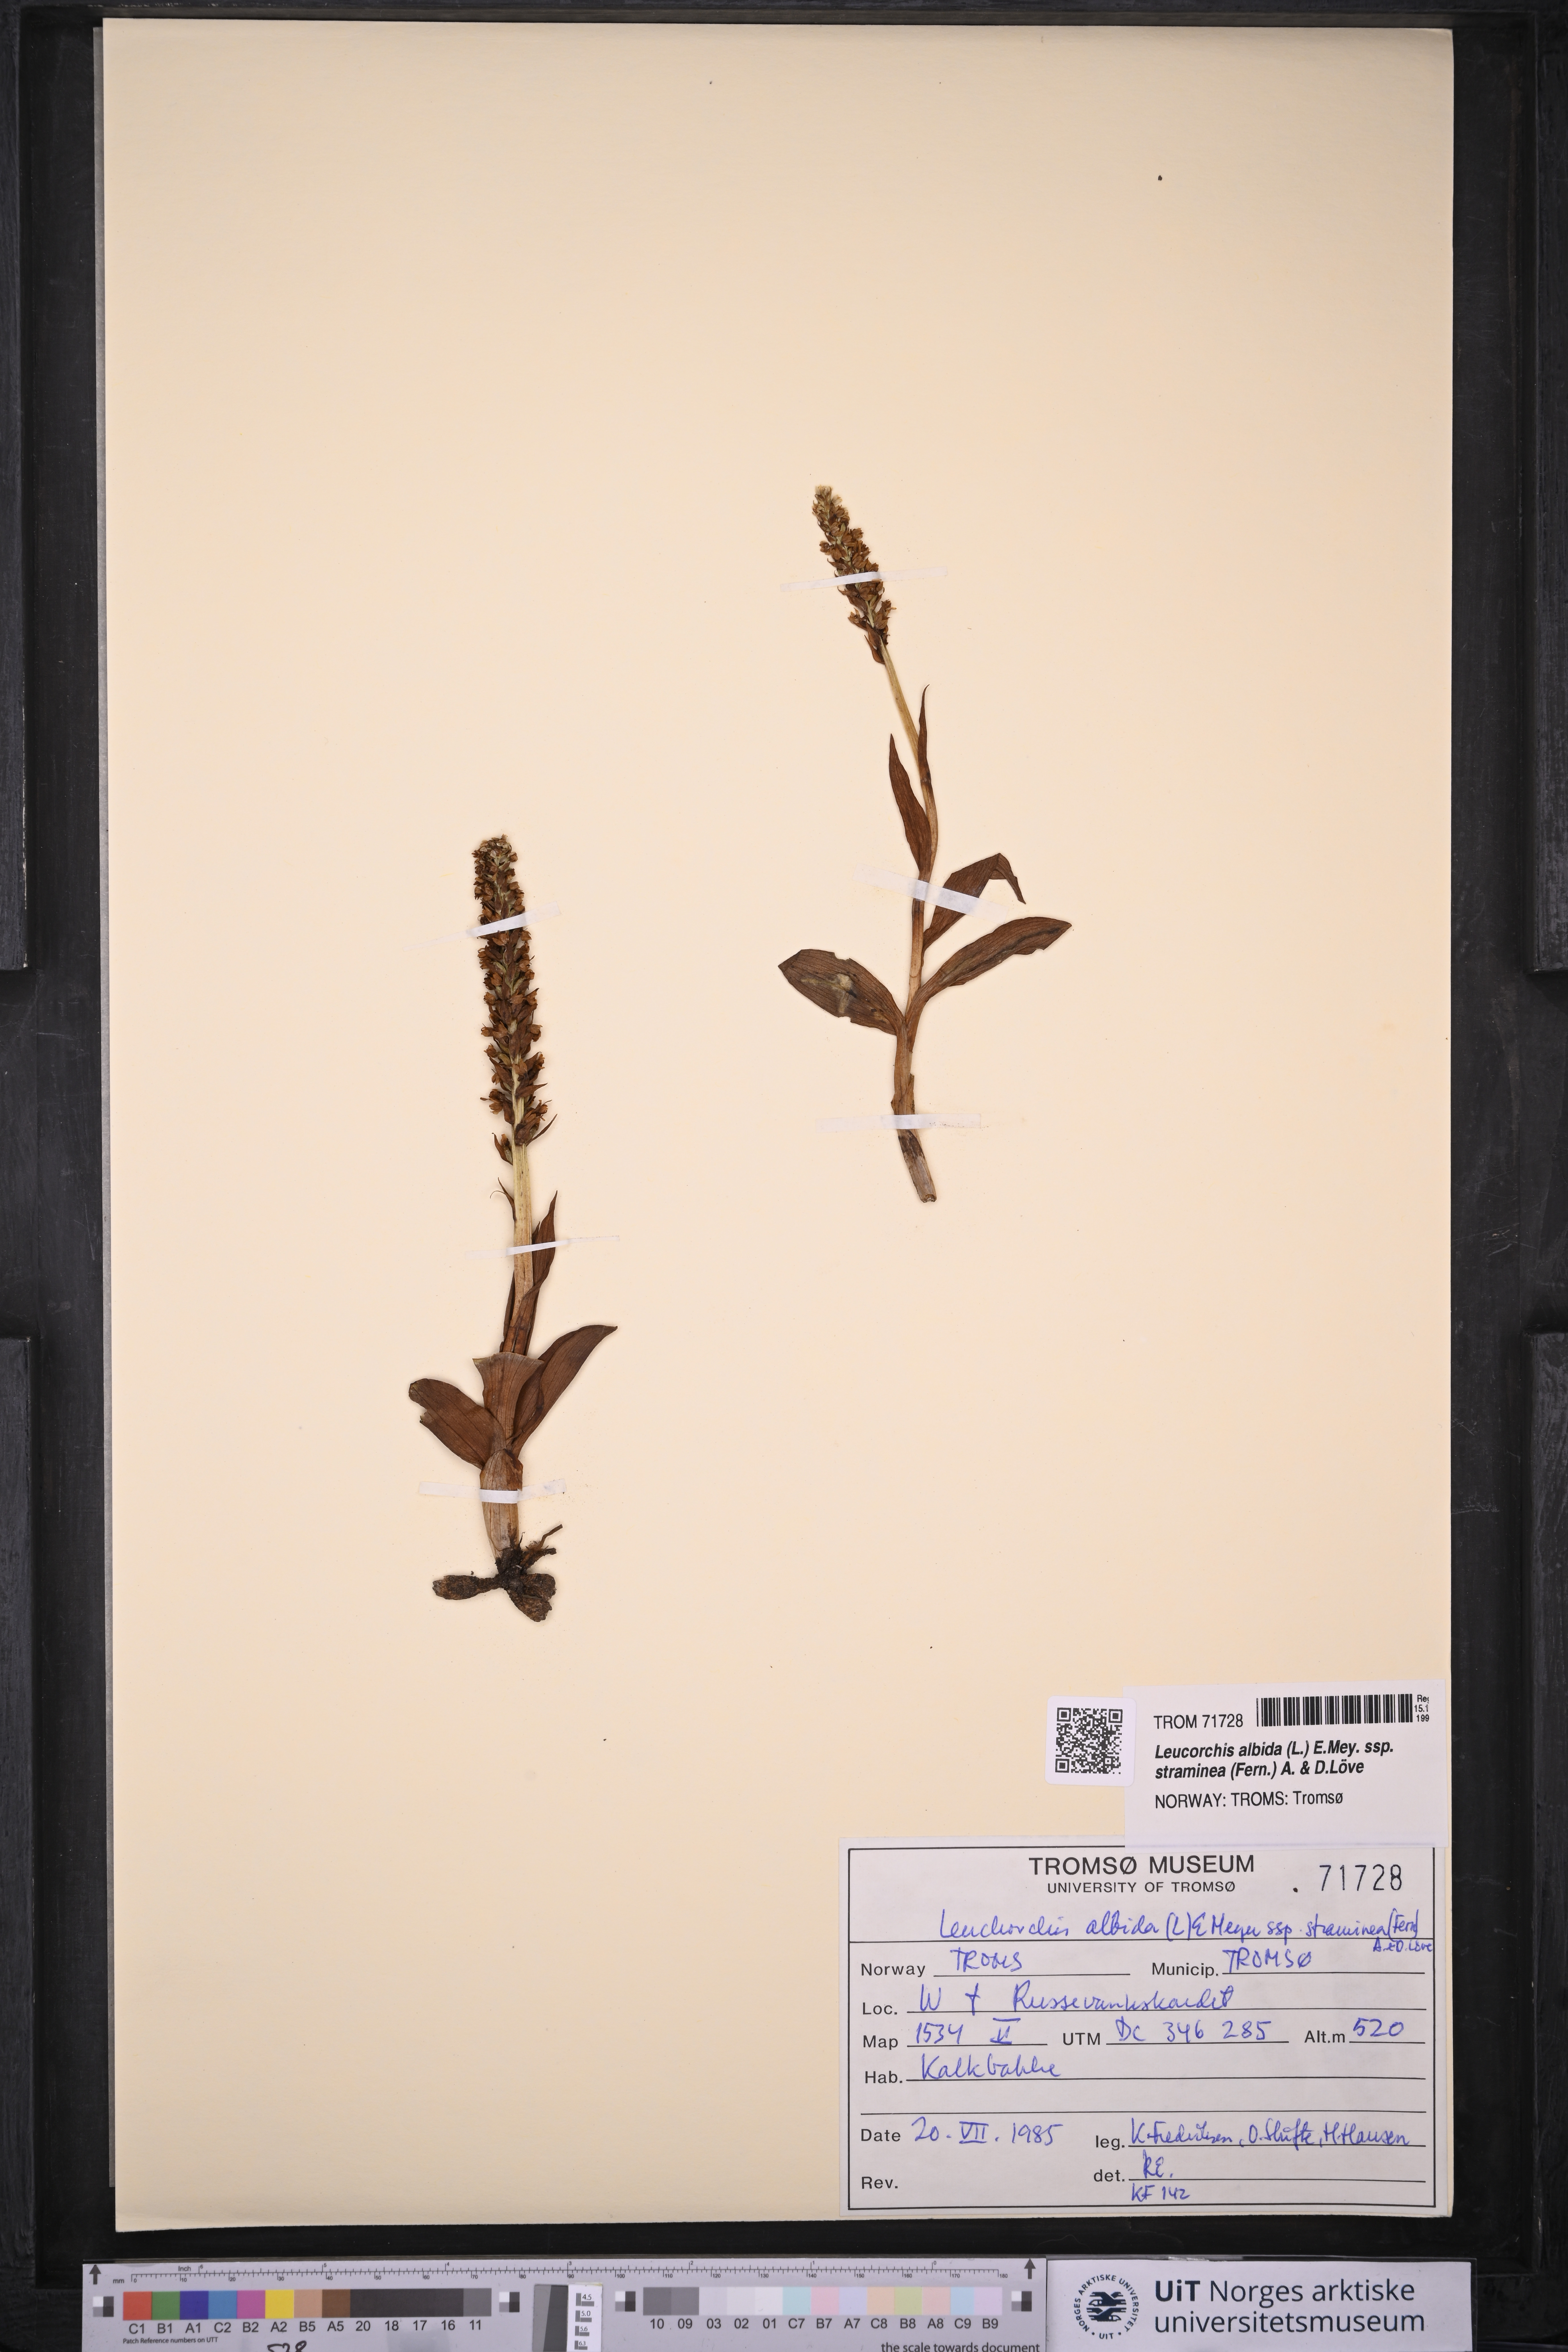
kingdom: Plantae
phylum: Tracheophyta
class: Liliopsida
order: Asparagales
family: Orchidaceae
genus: Pseudorchis
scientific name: Pseudorchis straminea
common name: Vanilla-scented bog orchid
